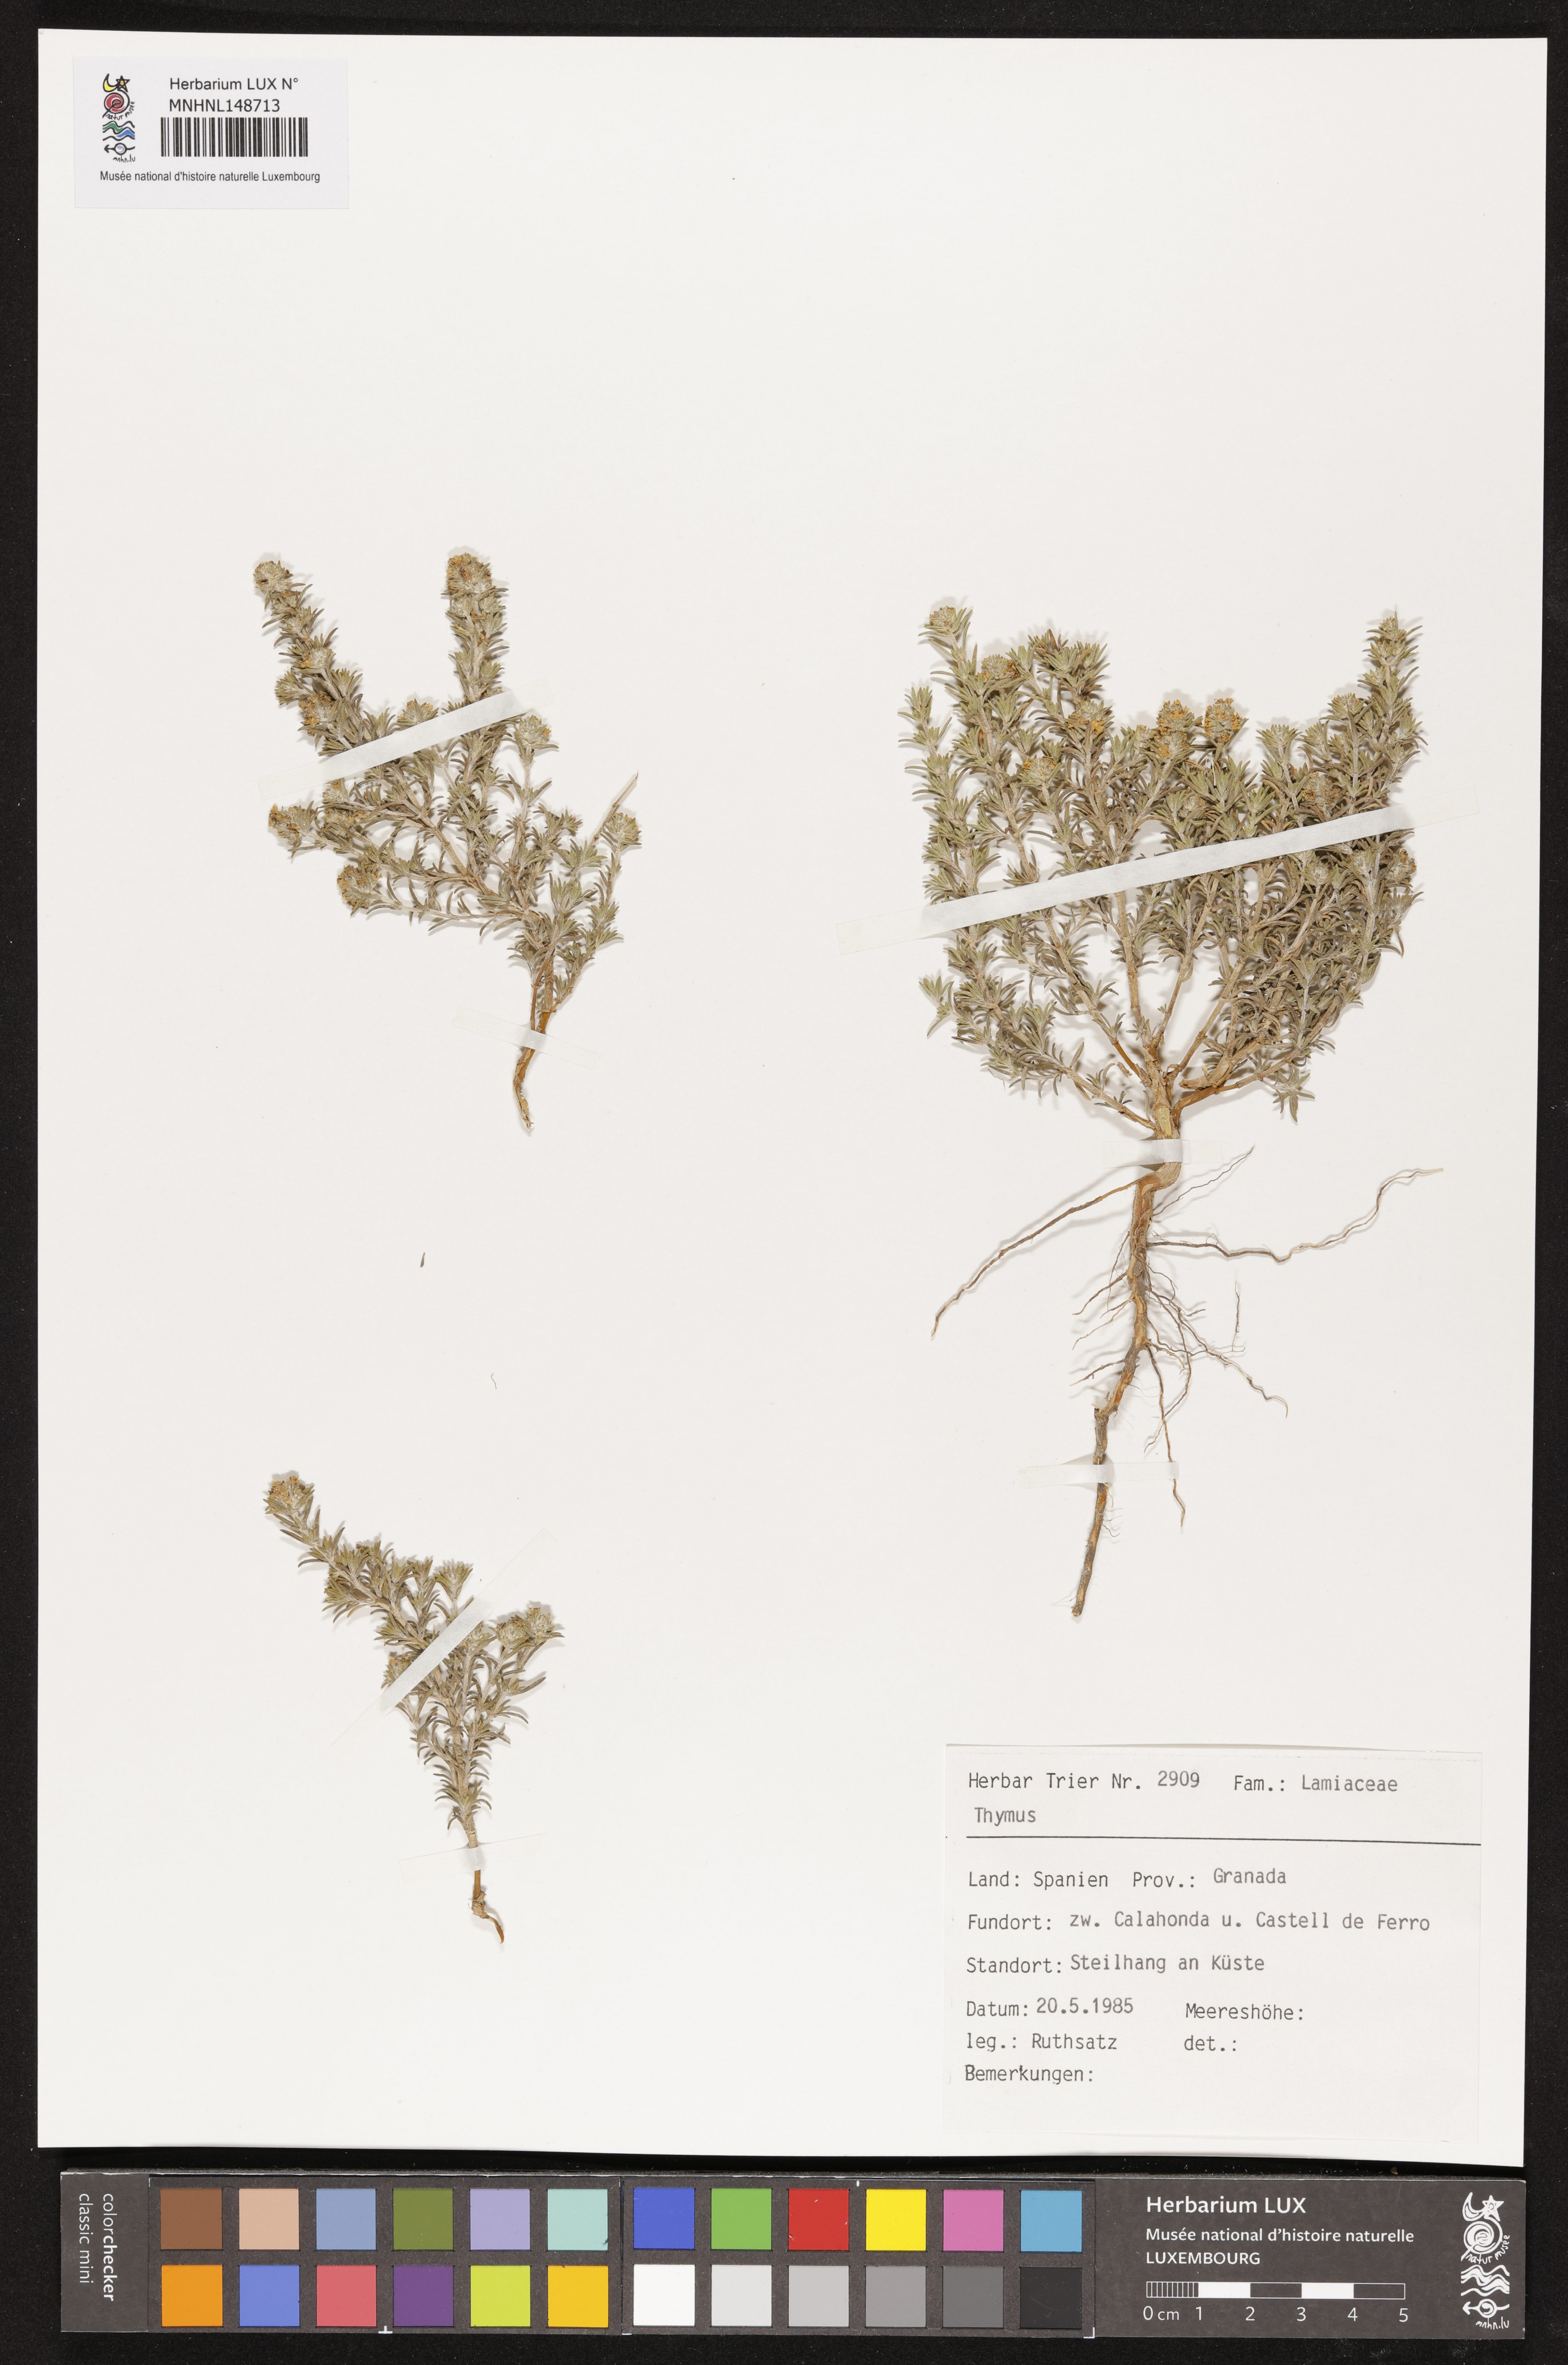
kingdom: Plantae
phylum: Tracheophyta
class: Magnoliopsida
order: Lamiales
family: Lamiaceae
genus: Thymus
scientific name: Thymus
